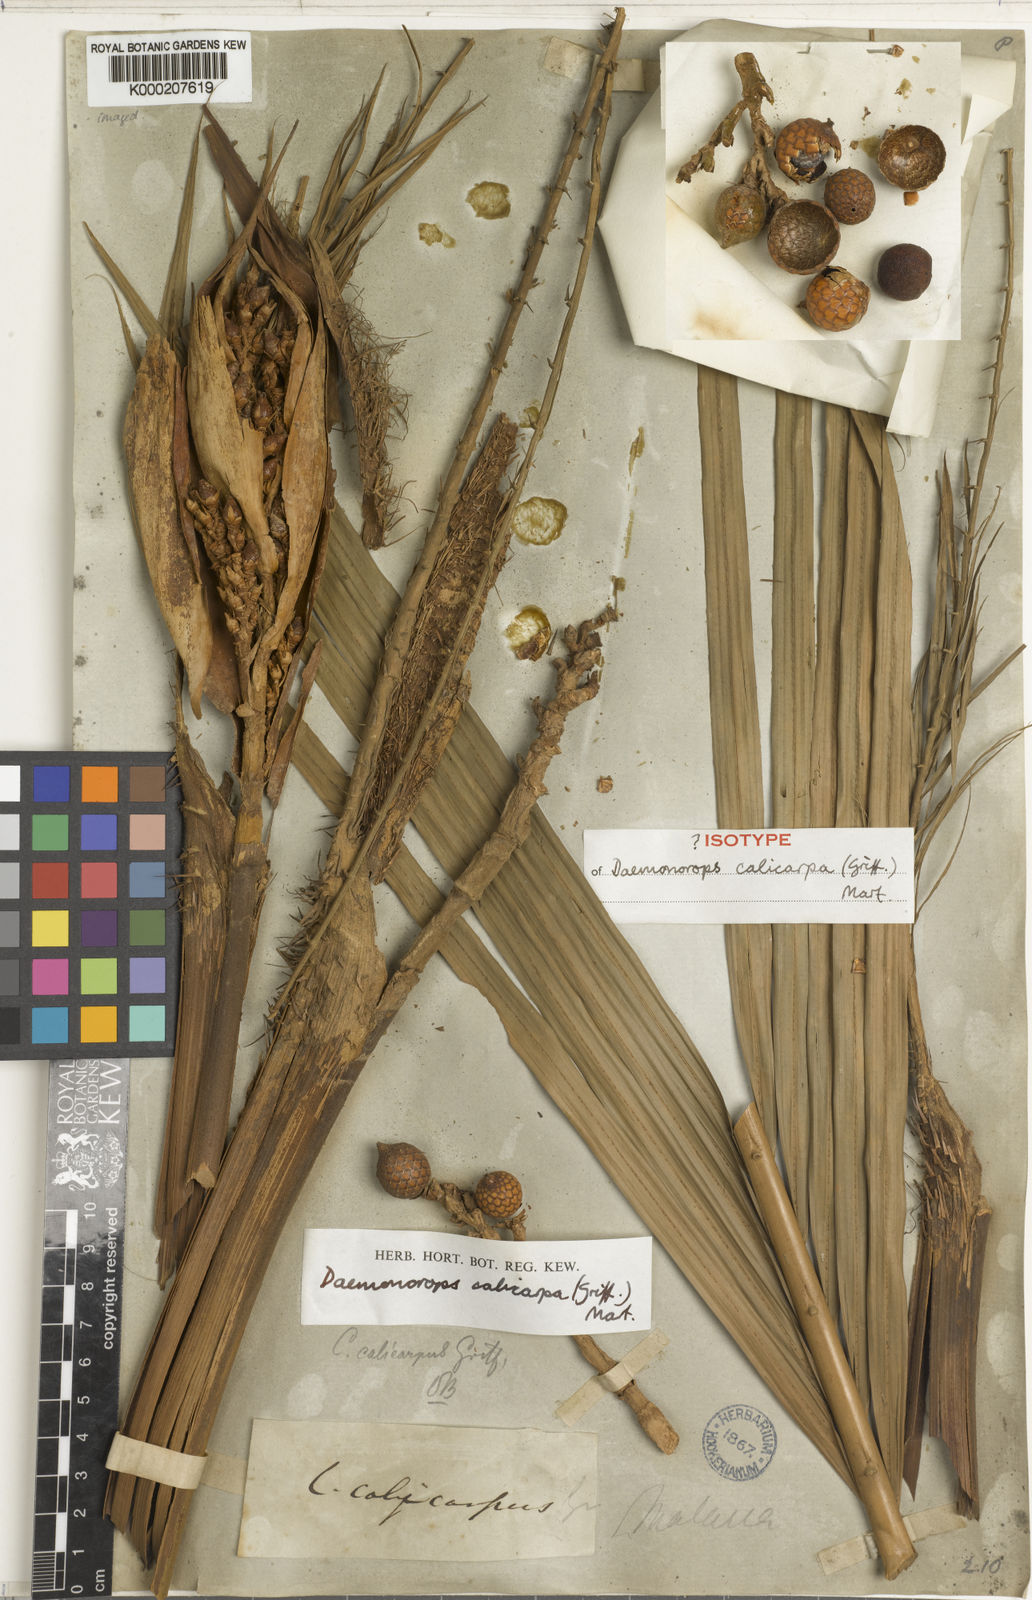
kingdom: Plantae
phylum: Tracheophyta
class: Liliopsida
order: Arecales
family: Arecaceae
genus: Calamus
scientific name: Calamus calicarpus
